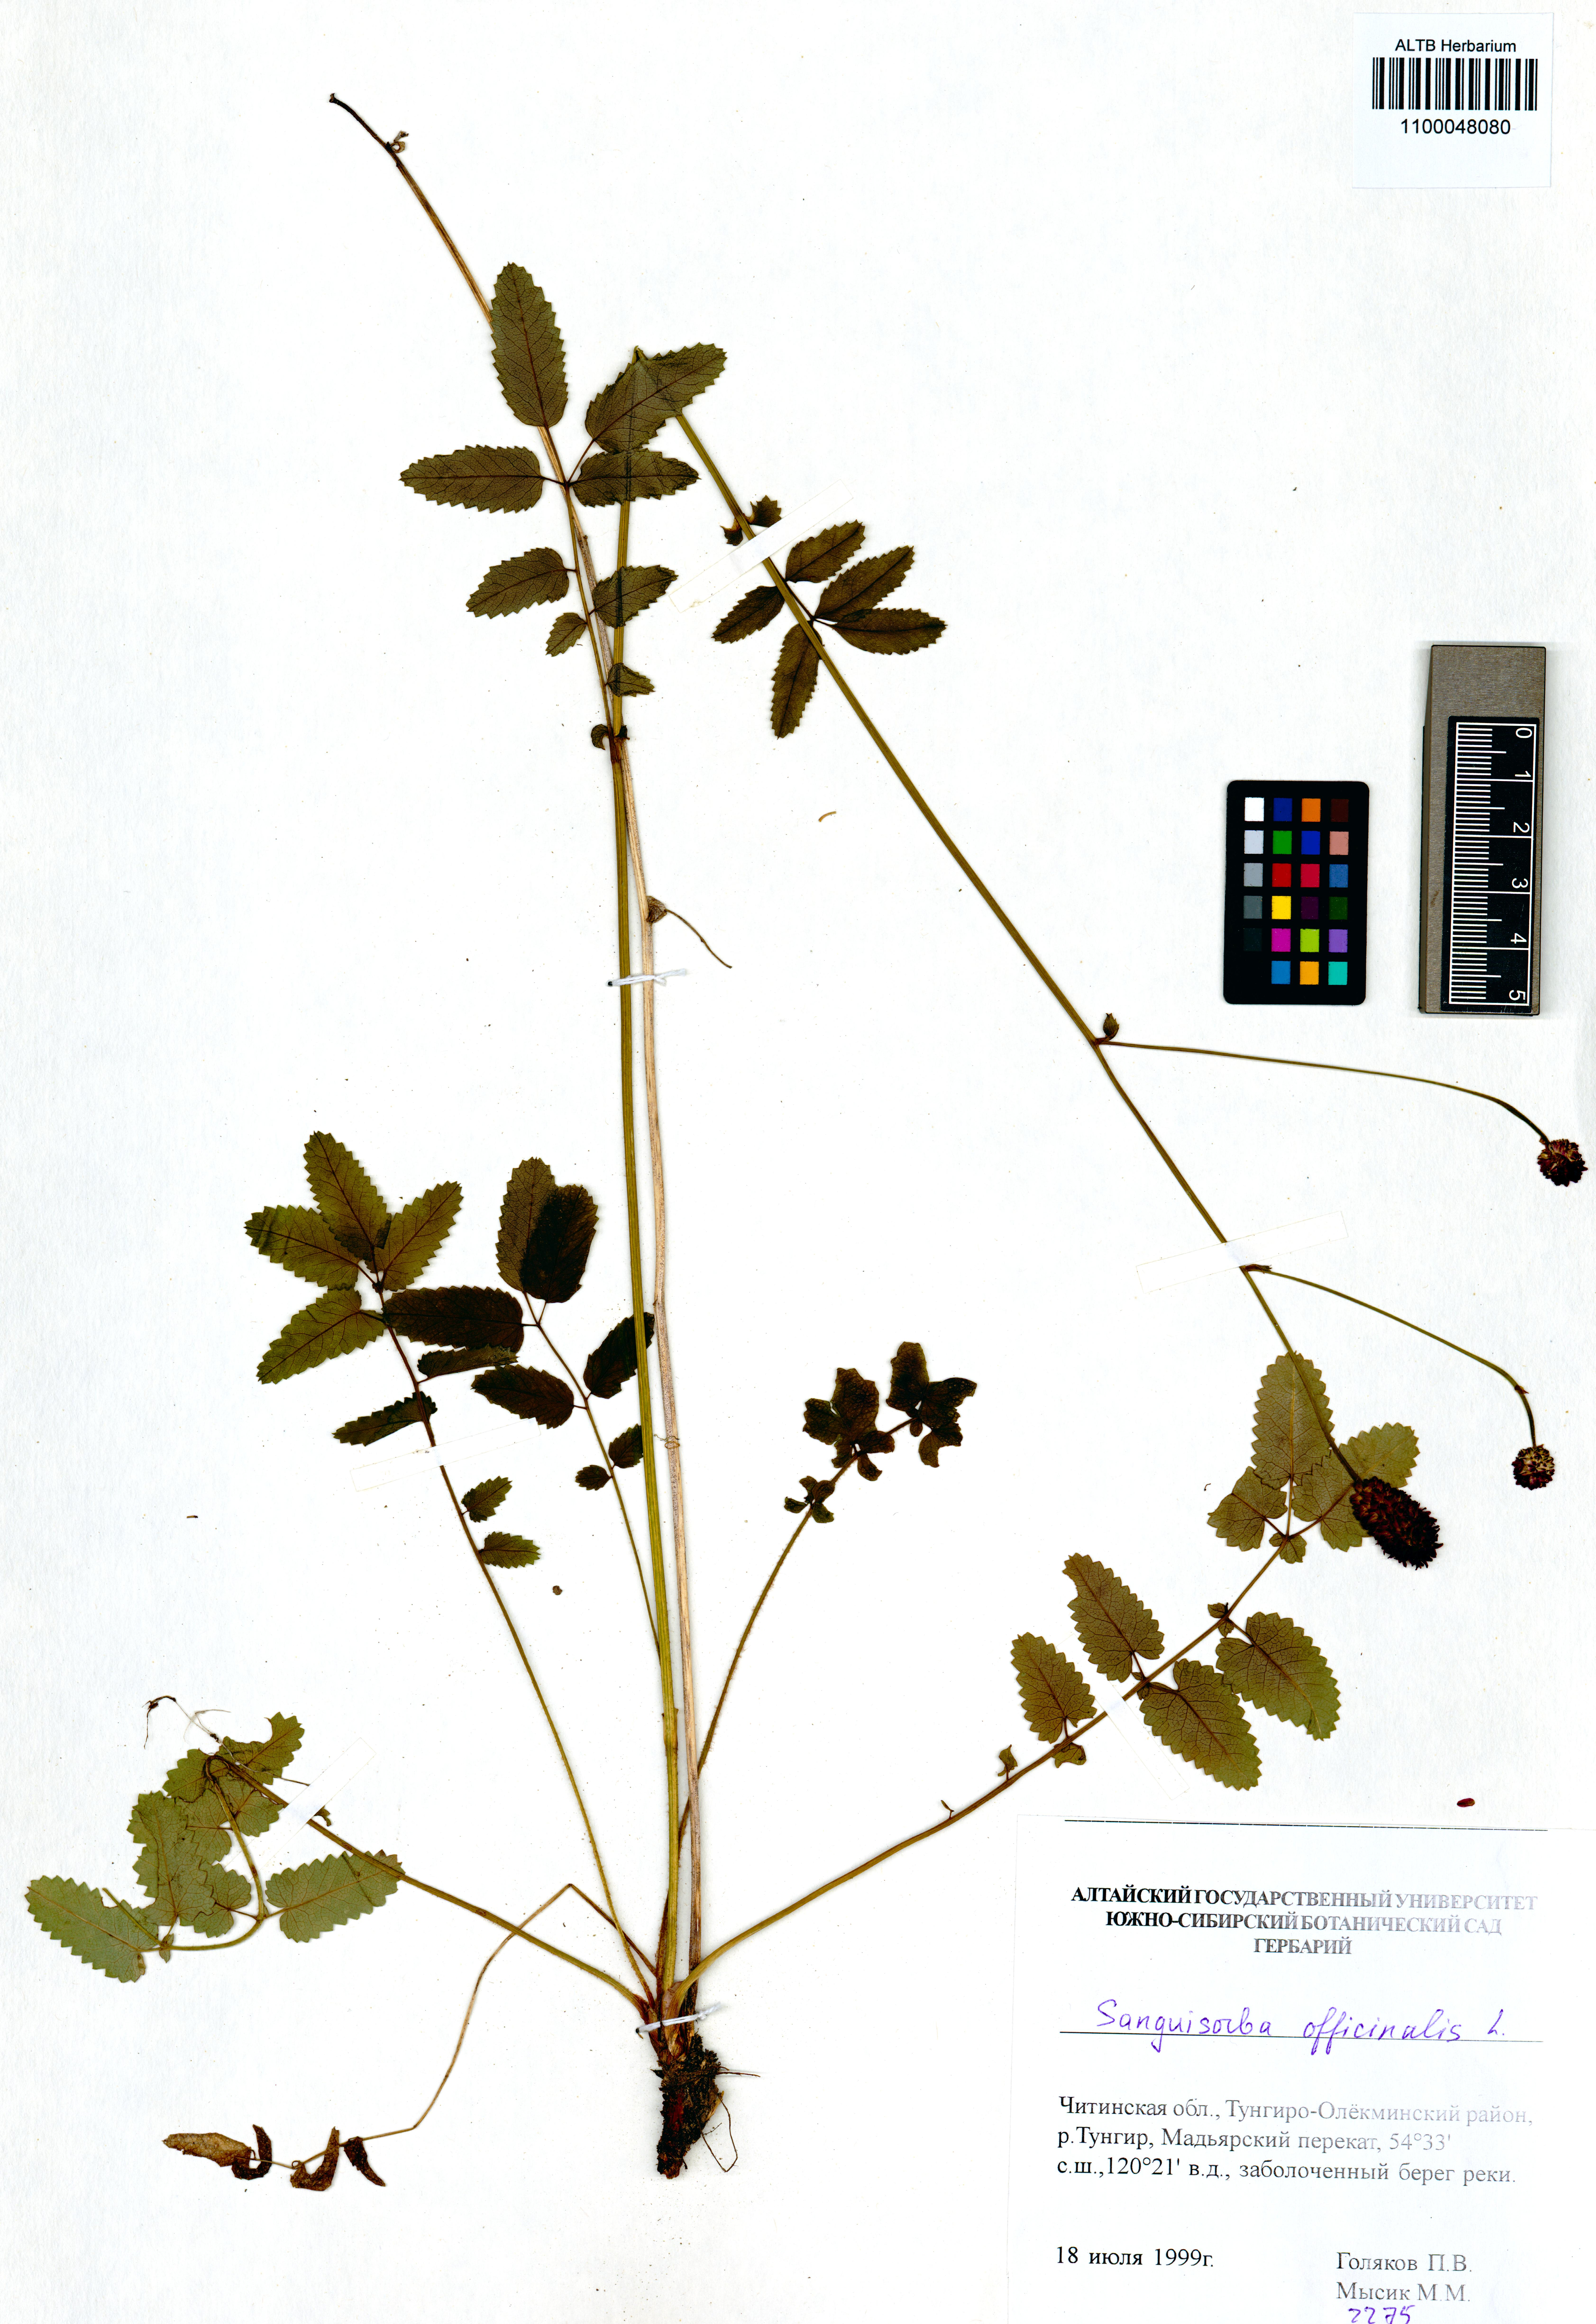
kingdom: Plantae
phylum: Tracheophyta
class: Magnoliopsida
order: Rosales
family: Rosaceae
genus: Sanguisorba
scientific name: Sanguisorba officinalis
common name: Great burnet
